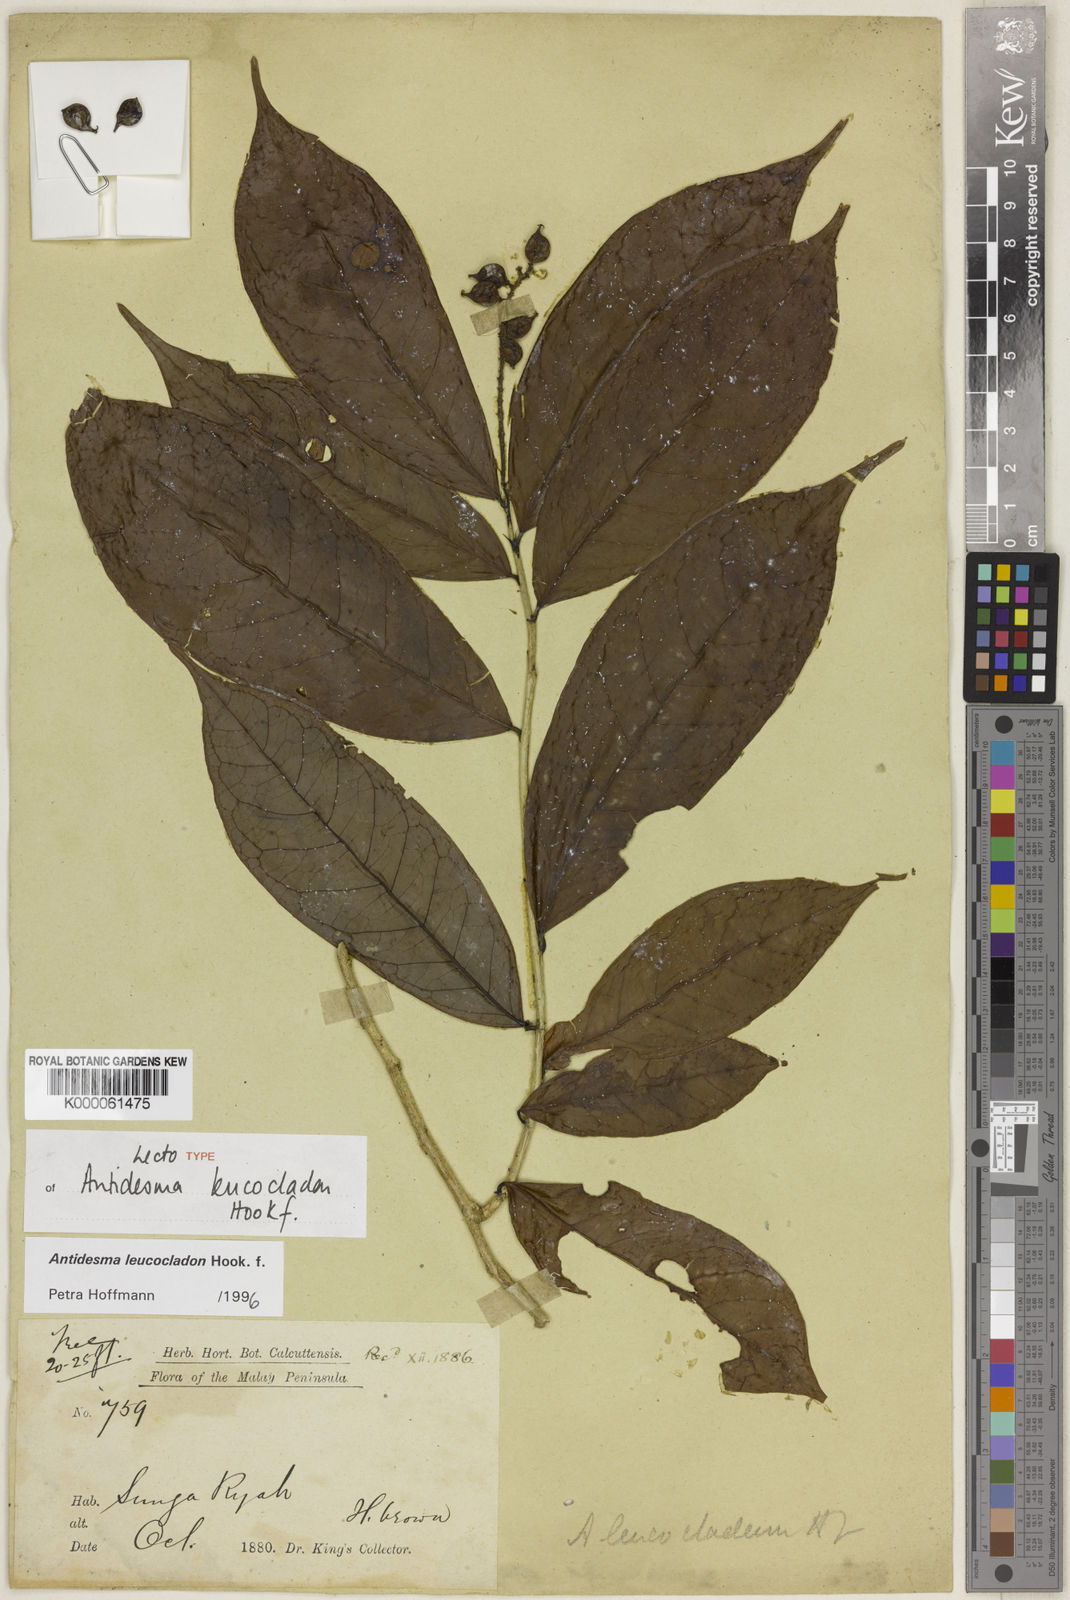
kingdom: Plantae
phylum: Tracheophyta
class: Magnoliopsida
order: Malpighiales
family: Phyllanthaceae
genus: Antidesma
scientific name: Antidesma leucocladon
